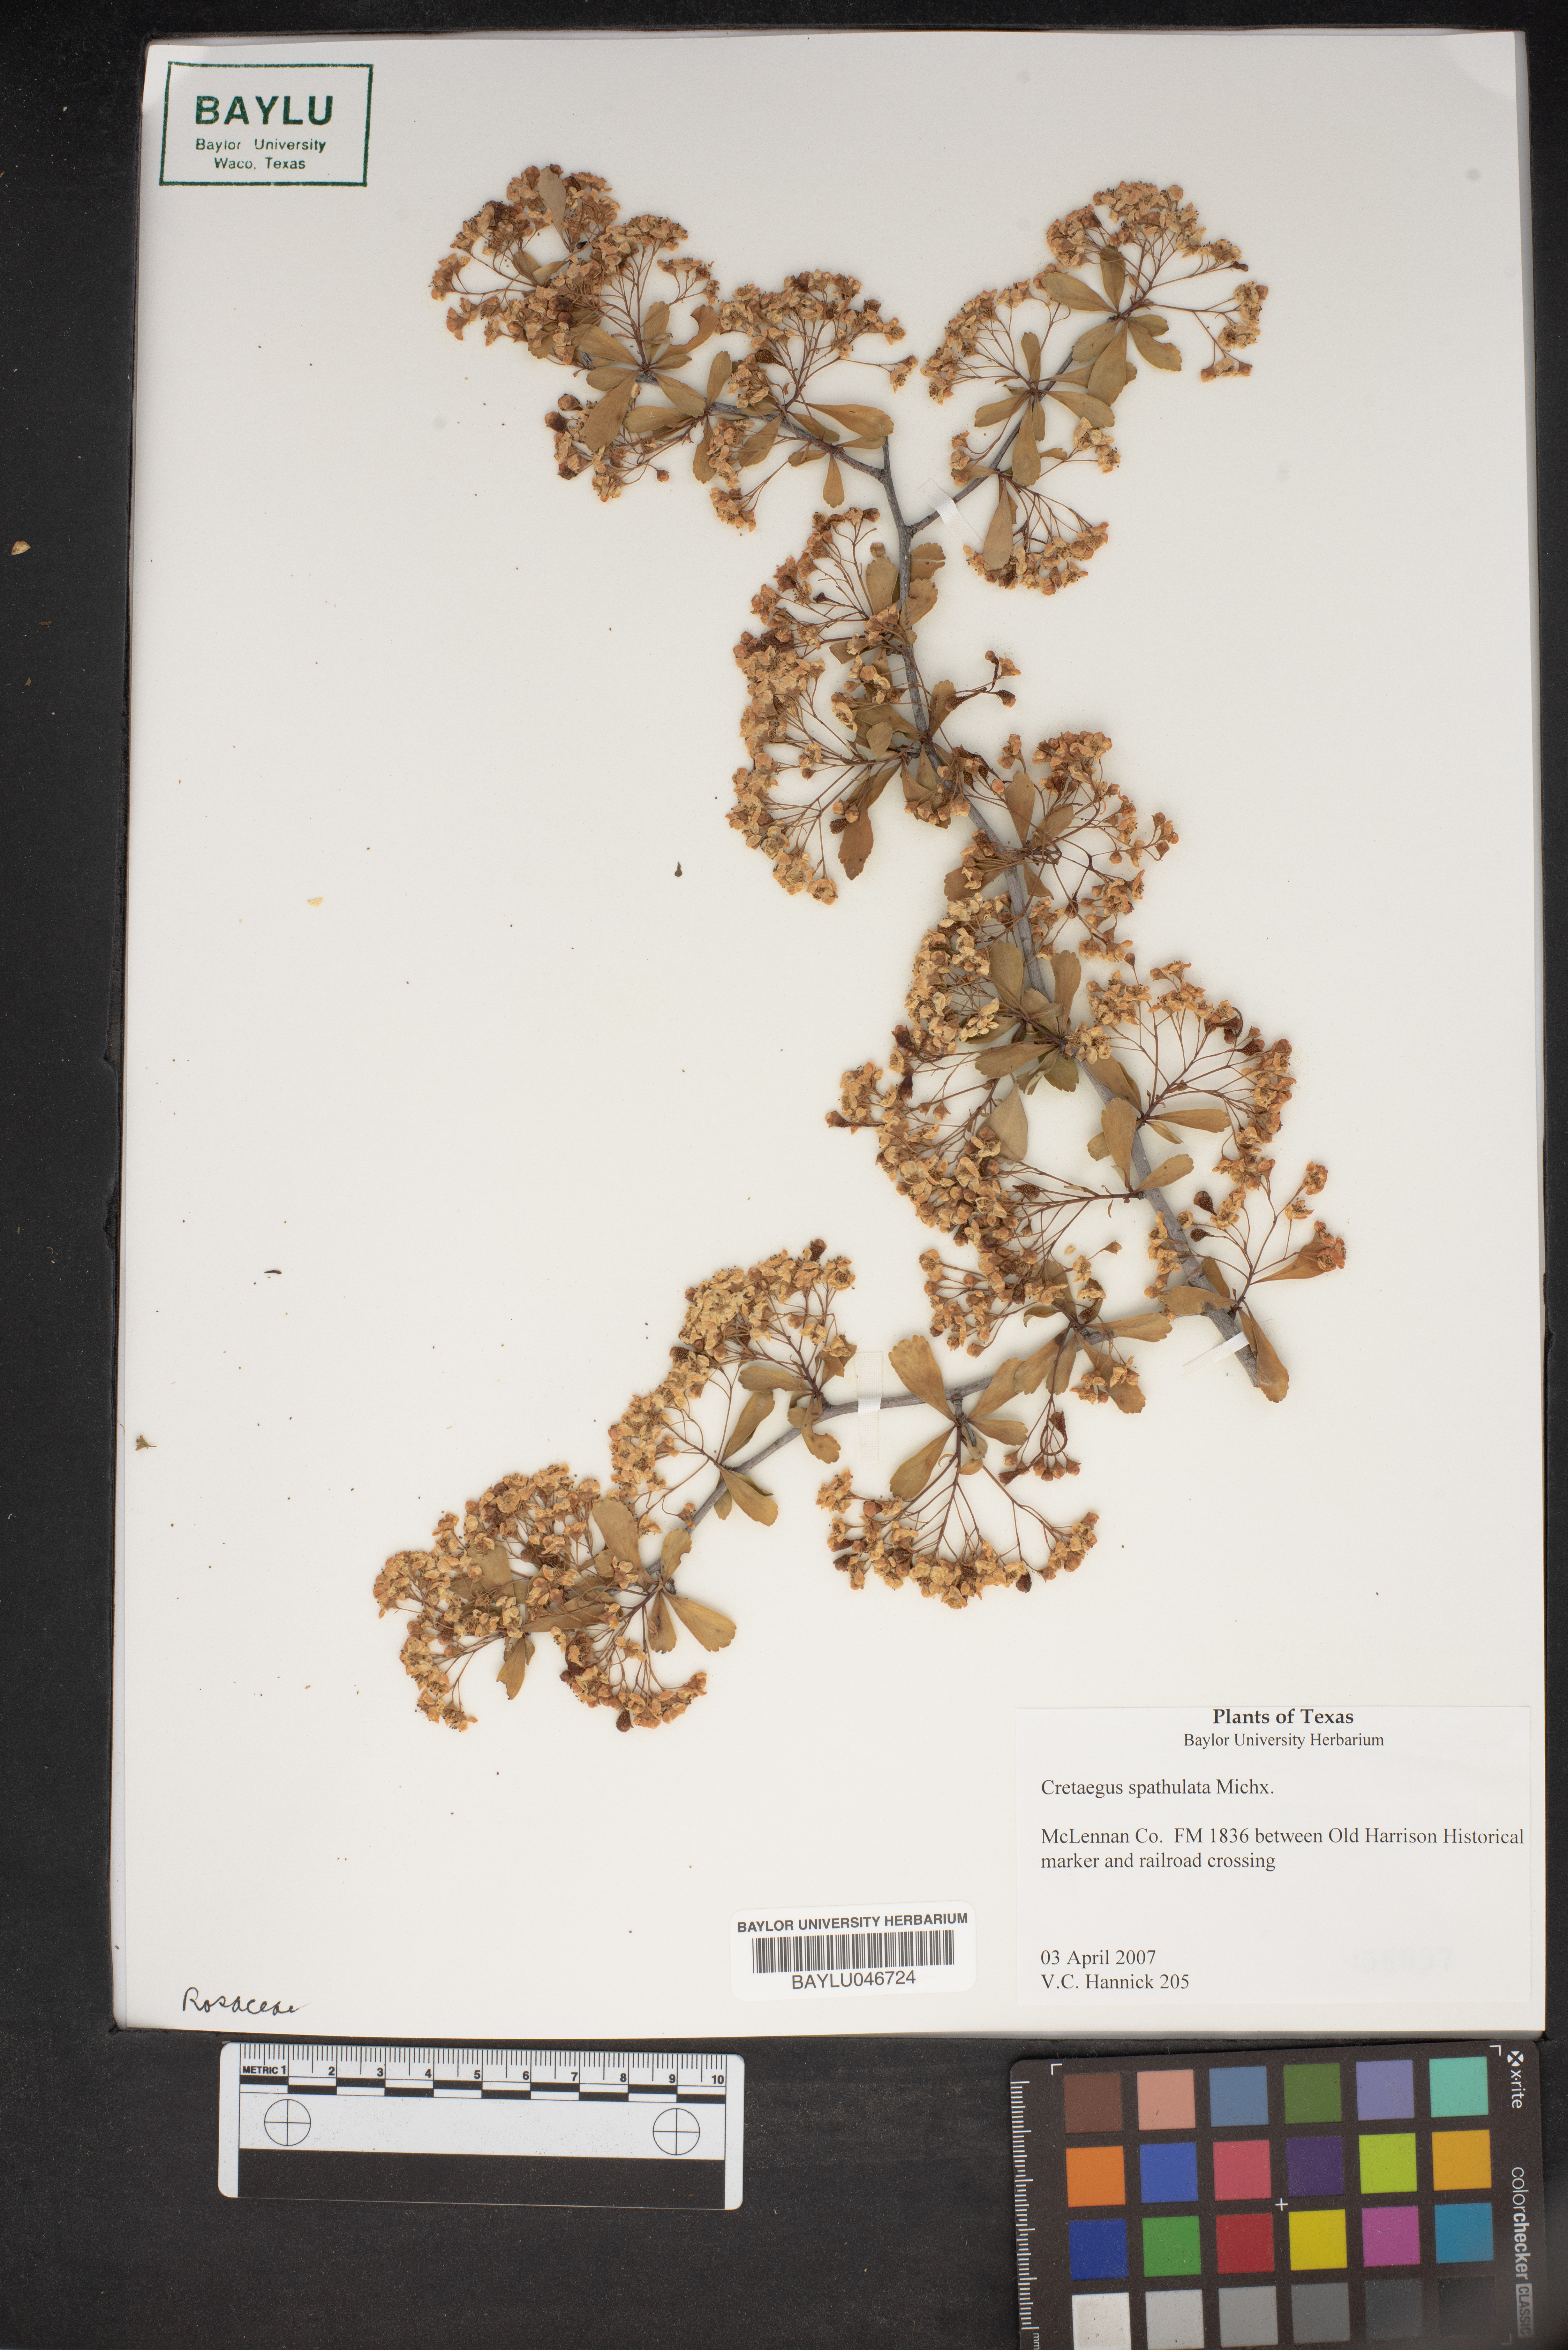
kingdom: Plantae
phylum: Tracheophyta
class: Magnoliopsida
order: Rosales
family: Rosaceae
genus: Crataegus
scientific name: Crataegus spathulata
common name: Littlehip hawthorn
